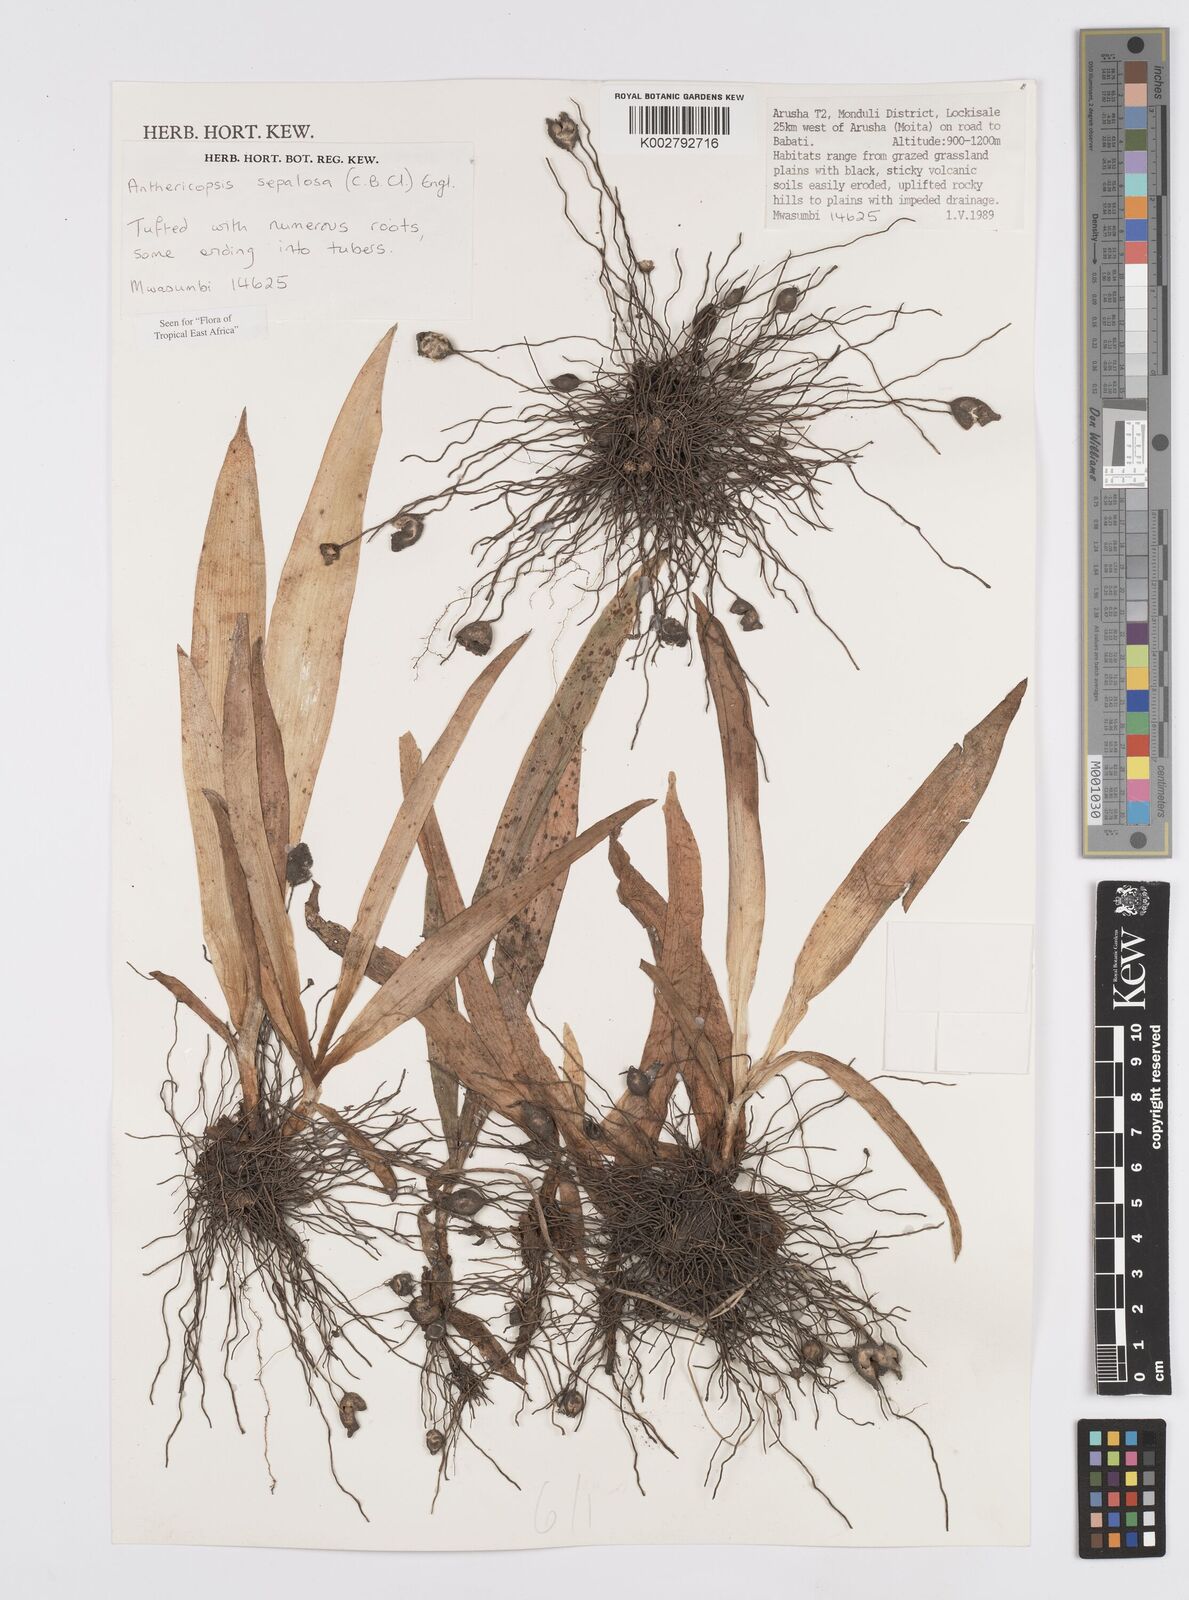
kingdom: Plantae
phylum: Tracheophyta
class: Liliopsida
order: Commelinales
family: Commelinaceae
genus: Anthericopsis
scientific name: Anthericopsis sepalosa
